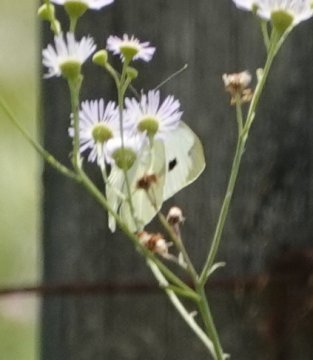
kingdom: Animalia
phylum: Arthropoda
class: Insecta
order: Lepidoptera
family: Pieridae
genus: Pieris
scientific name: Pieris rapae
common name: Cabbage White
